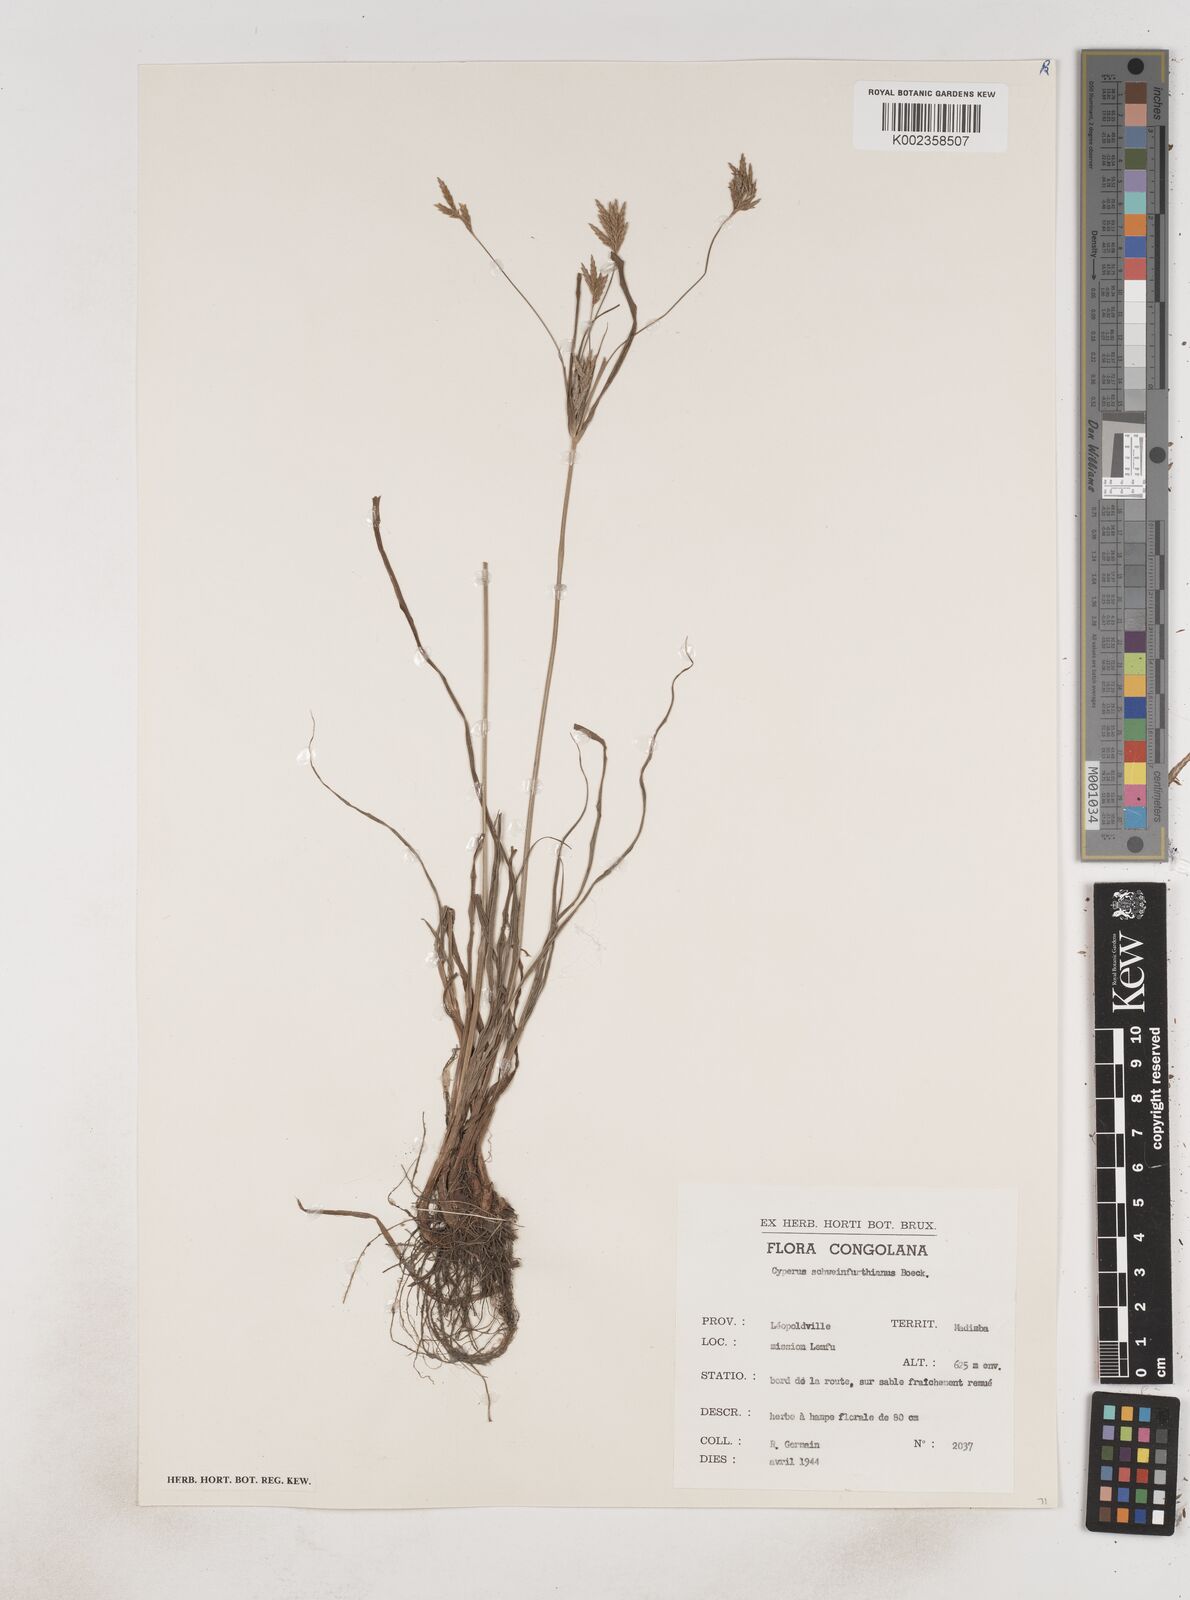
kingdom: Plantae
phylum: Tracheophyta
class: Liliopsida
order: Poales
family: Cyperaceae
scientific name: Cyperaceae
